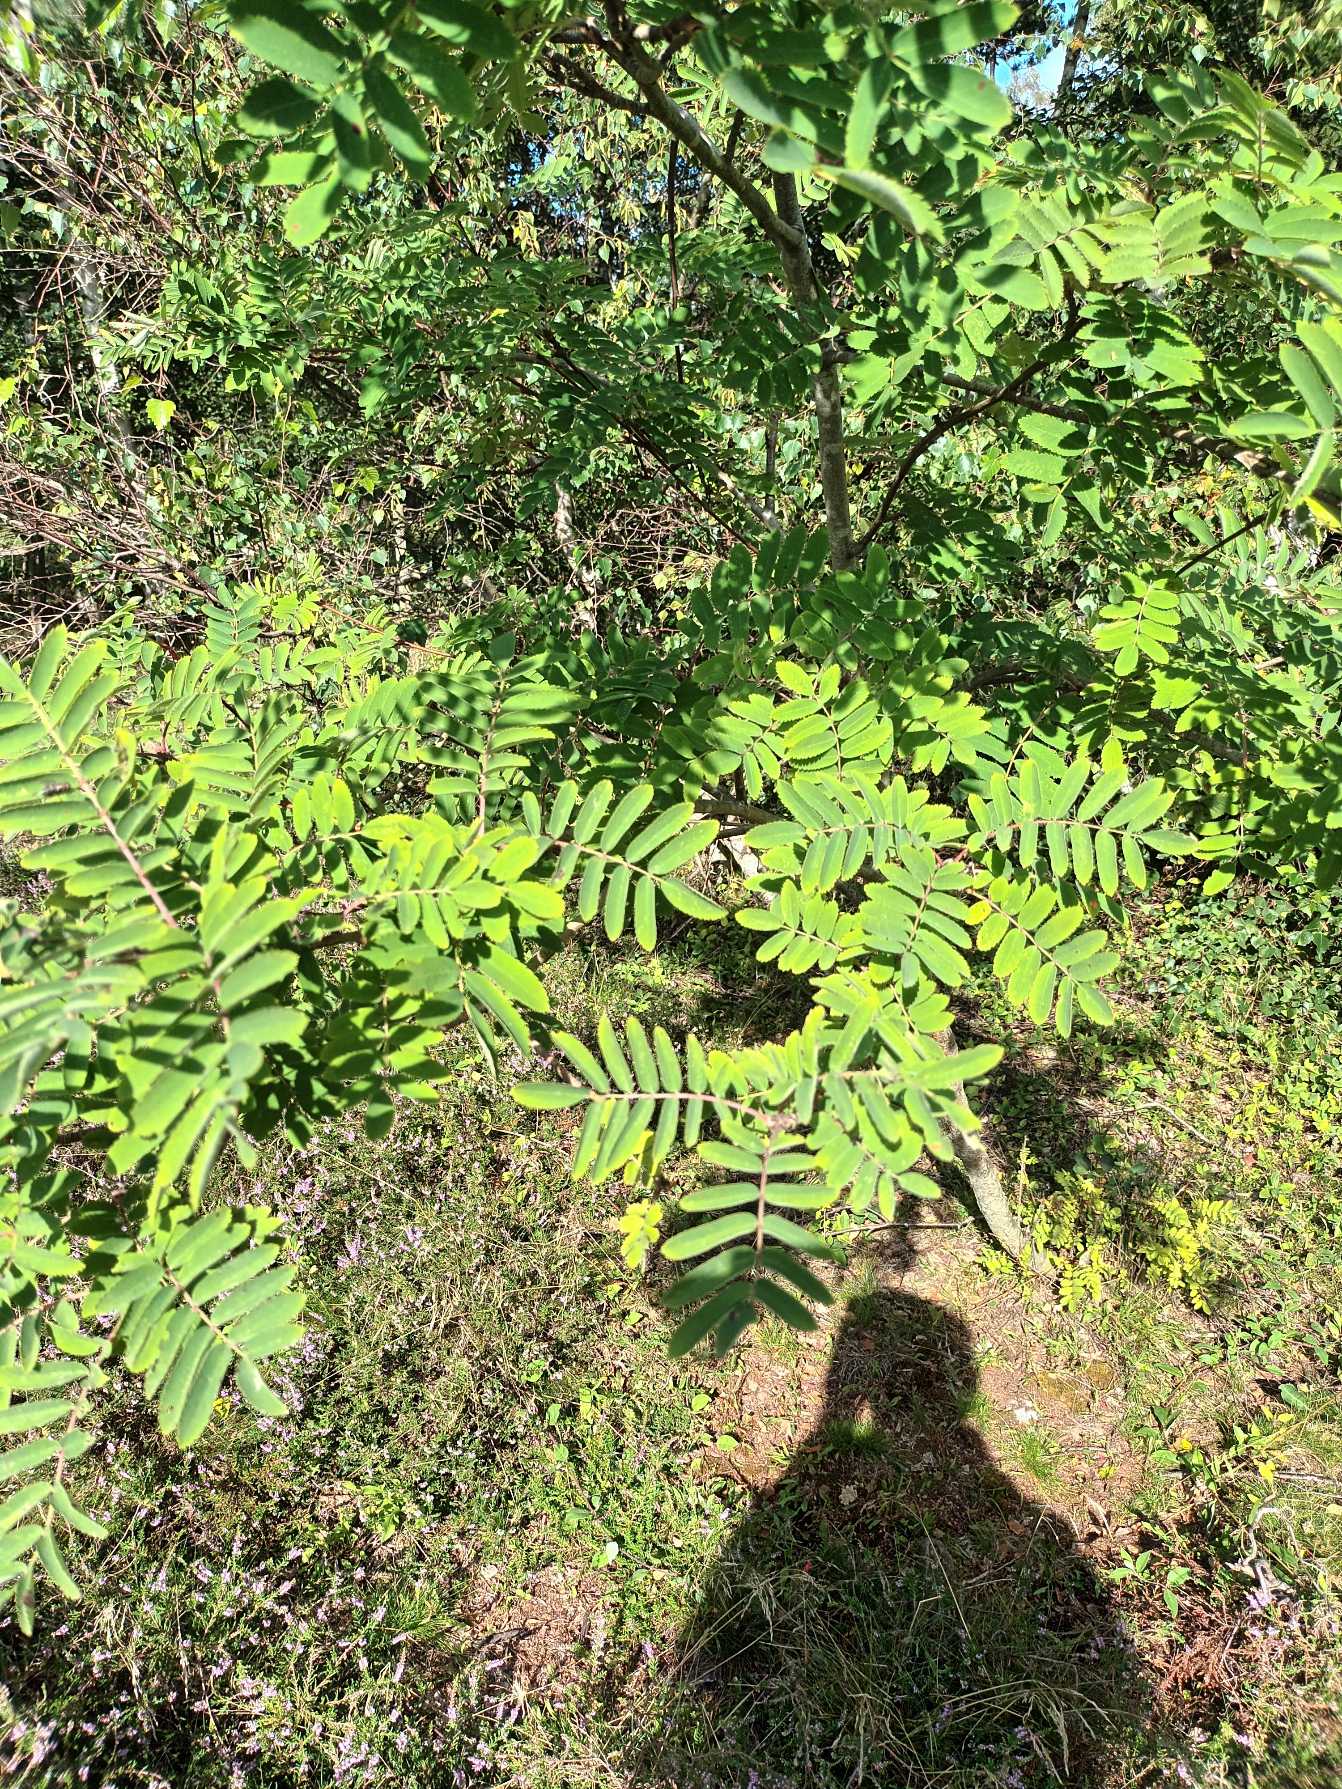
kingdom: Plantae
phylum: Tracheophyta
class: Magnoliopsida
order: Rosales
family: Rosaceae
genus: Sorbus
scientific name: Sorbus aucuparia
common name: Almindelig røn
